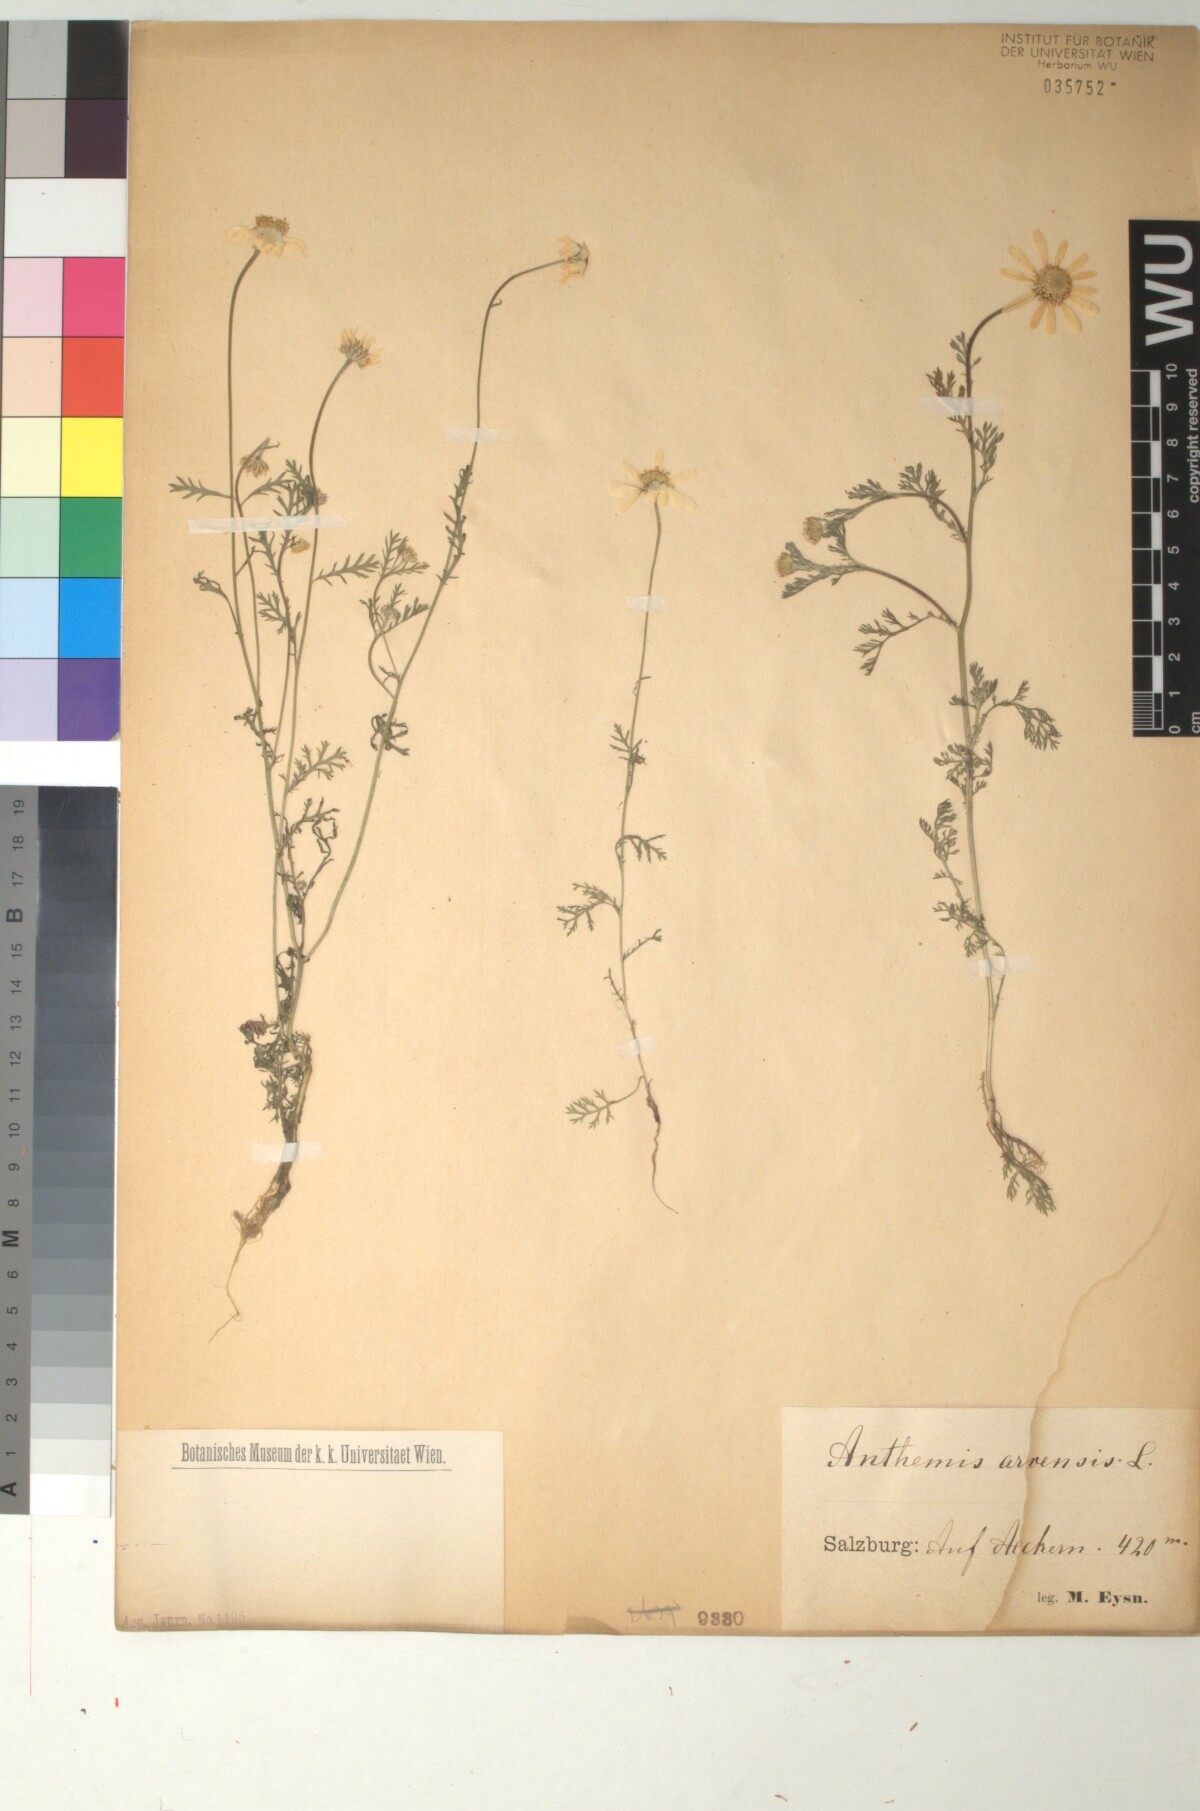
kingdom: Plantae
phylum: Tracheophyta
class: Magnoliopsida
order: Asterales
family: Asteraceae
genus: Anthemis
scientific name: Anthemis arvensis
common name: Corn chamomile
